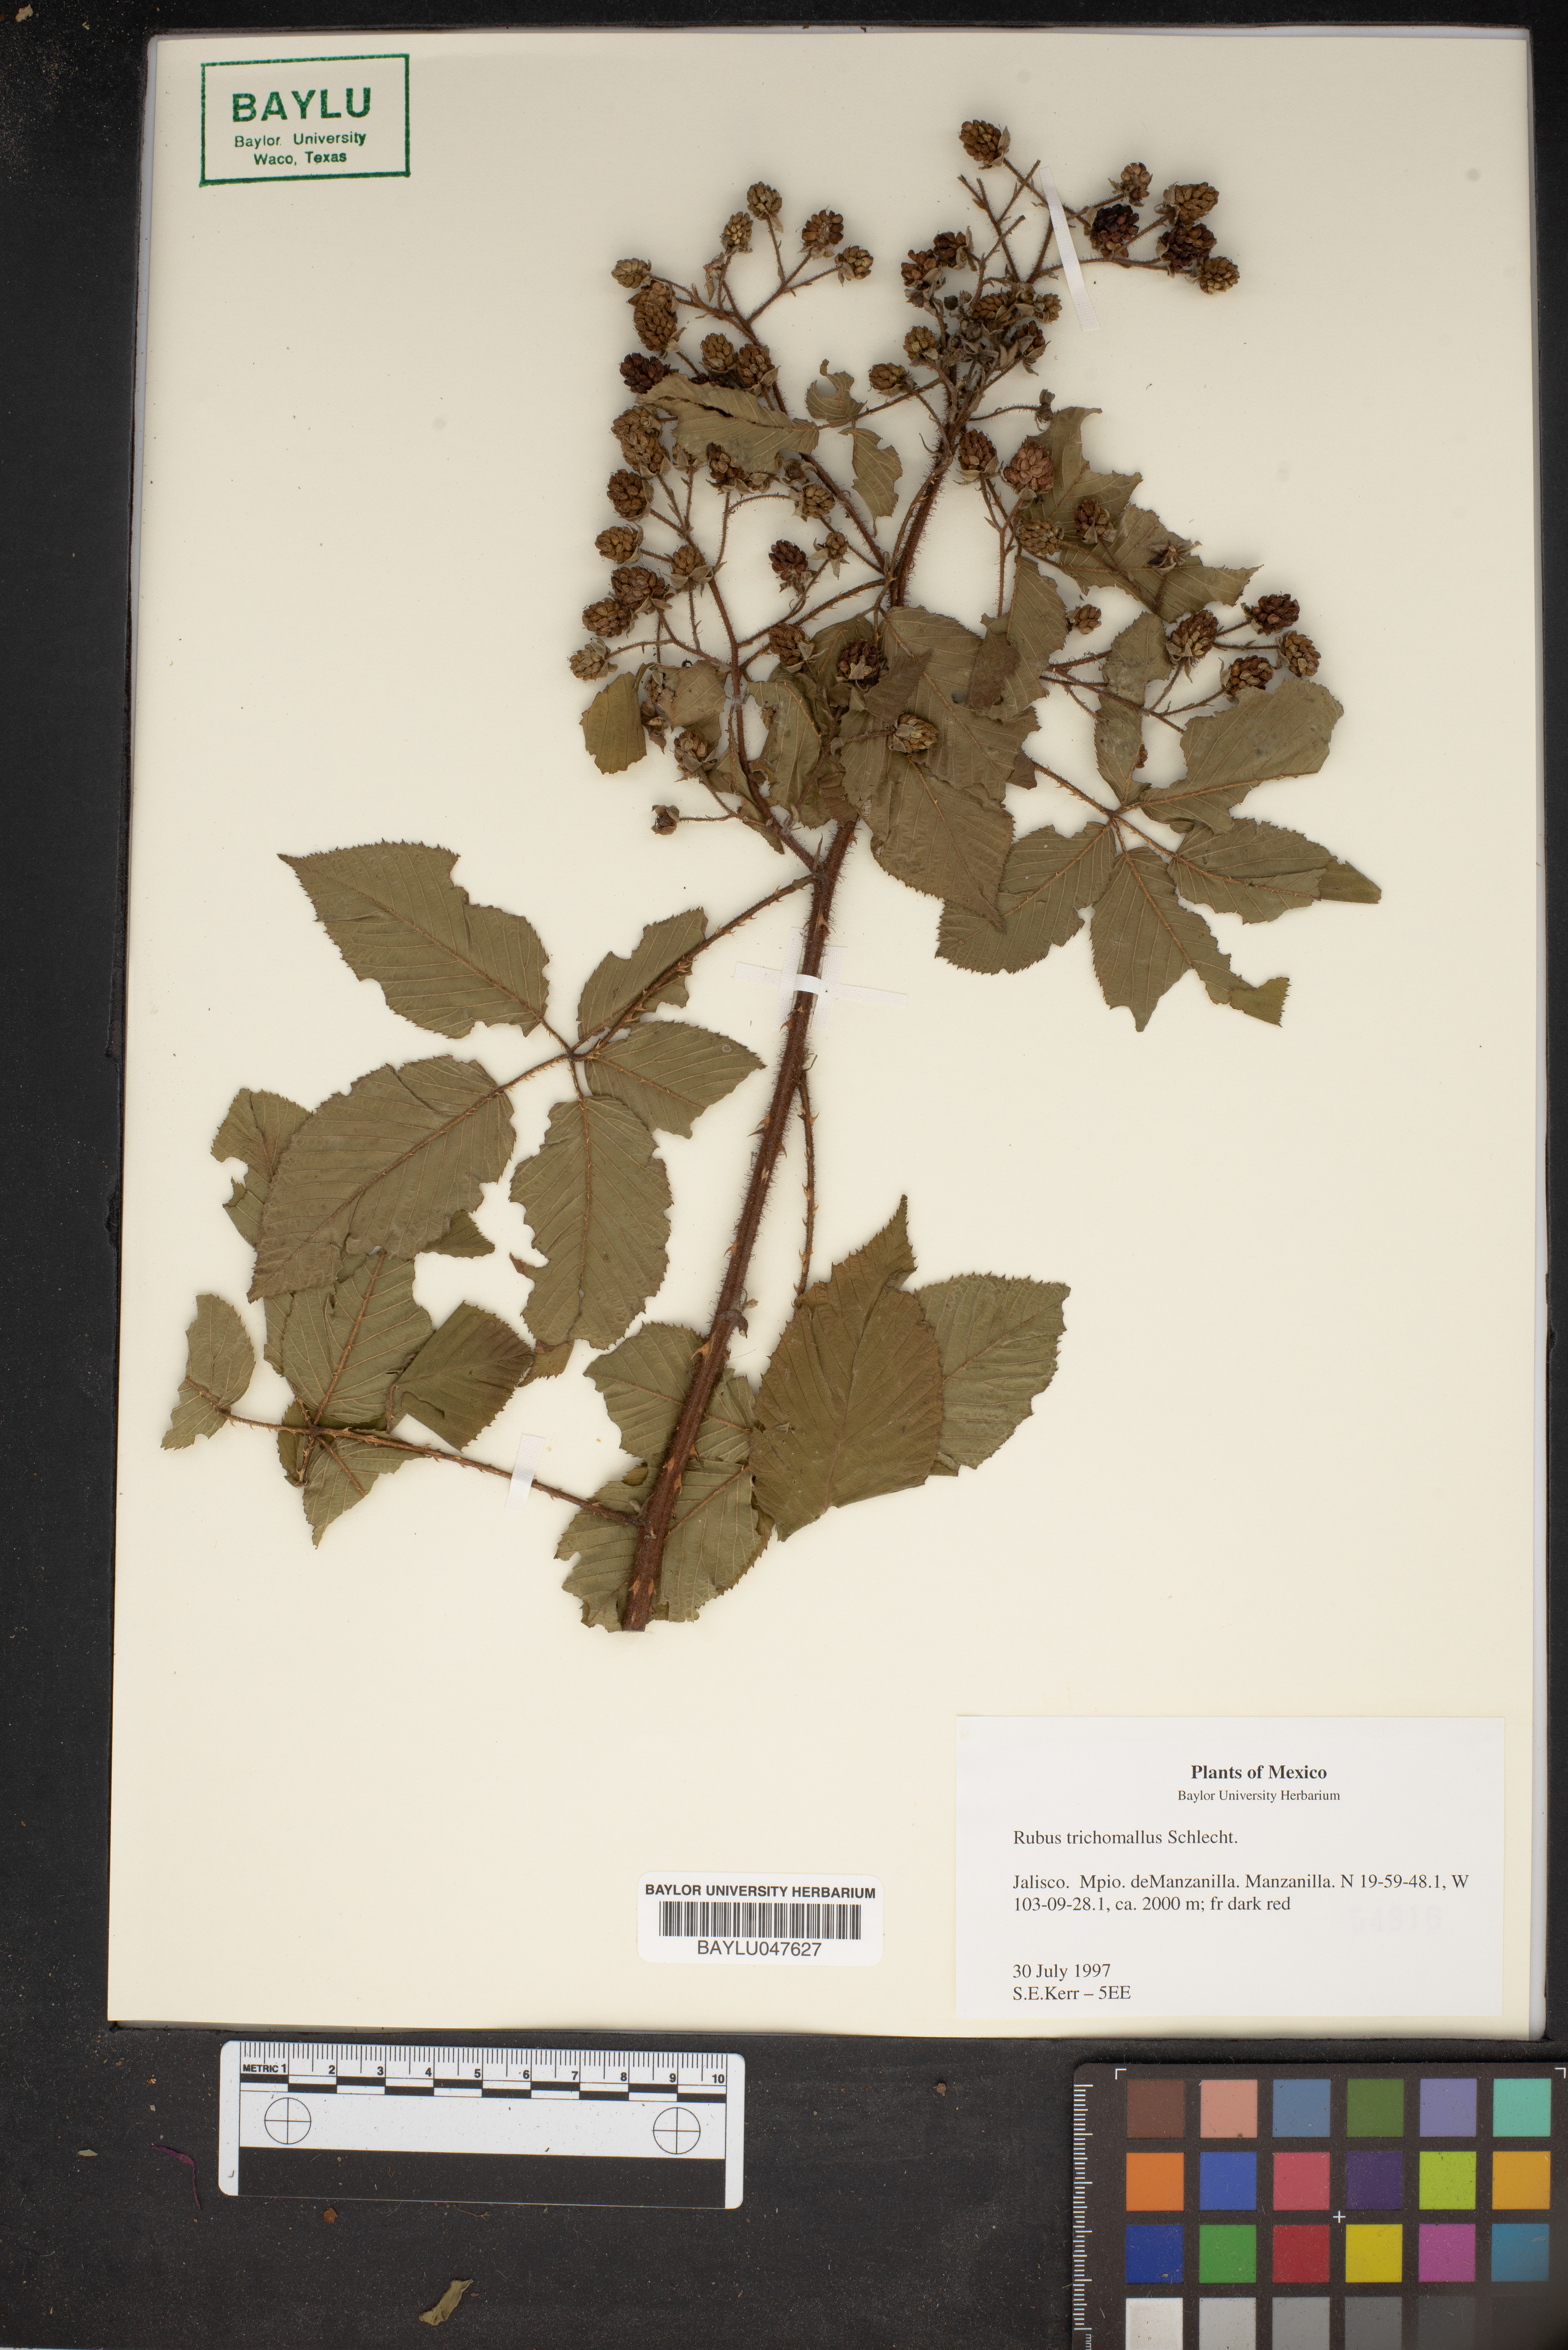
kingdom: Plantae
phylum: Tracheophyta
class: Magnoliopsida
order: Rosales
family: Rosaceae
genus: Rubus
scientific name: Rubus urticifolius
